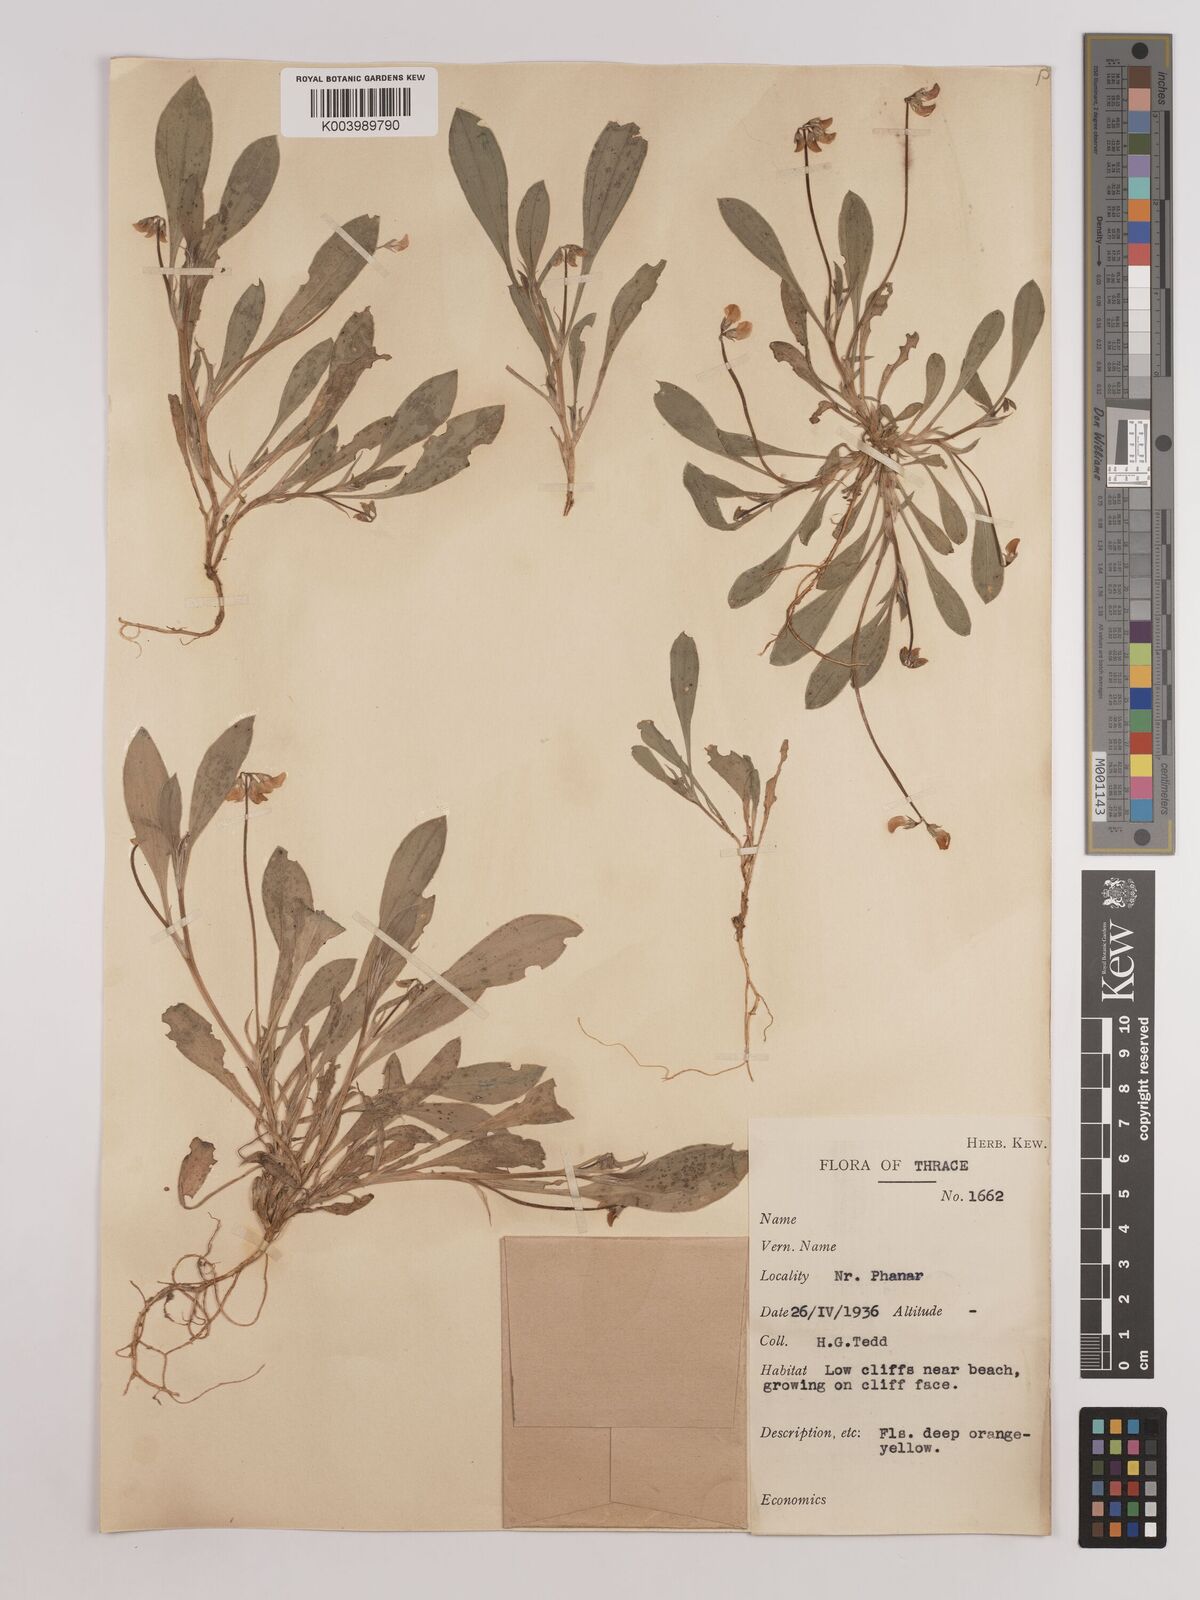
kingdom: Plantae
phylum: Tracheophyta
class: Magnoliopsida
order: Fabales
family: Fabaceae
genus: Scorpiurus
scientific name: Scorpiurus muricatus
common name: Caterpillar-plant
